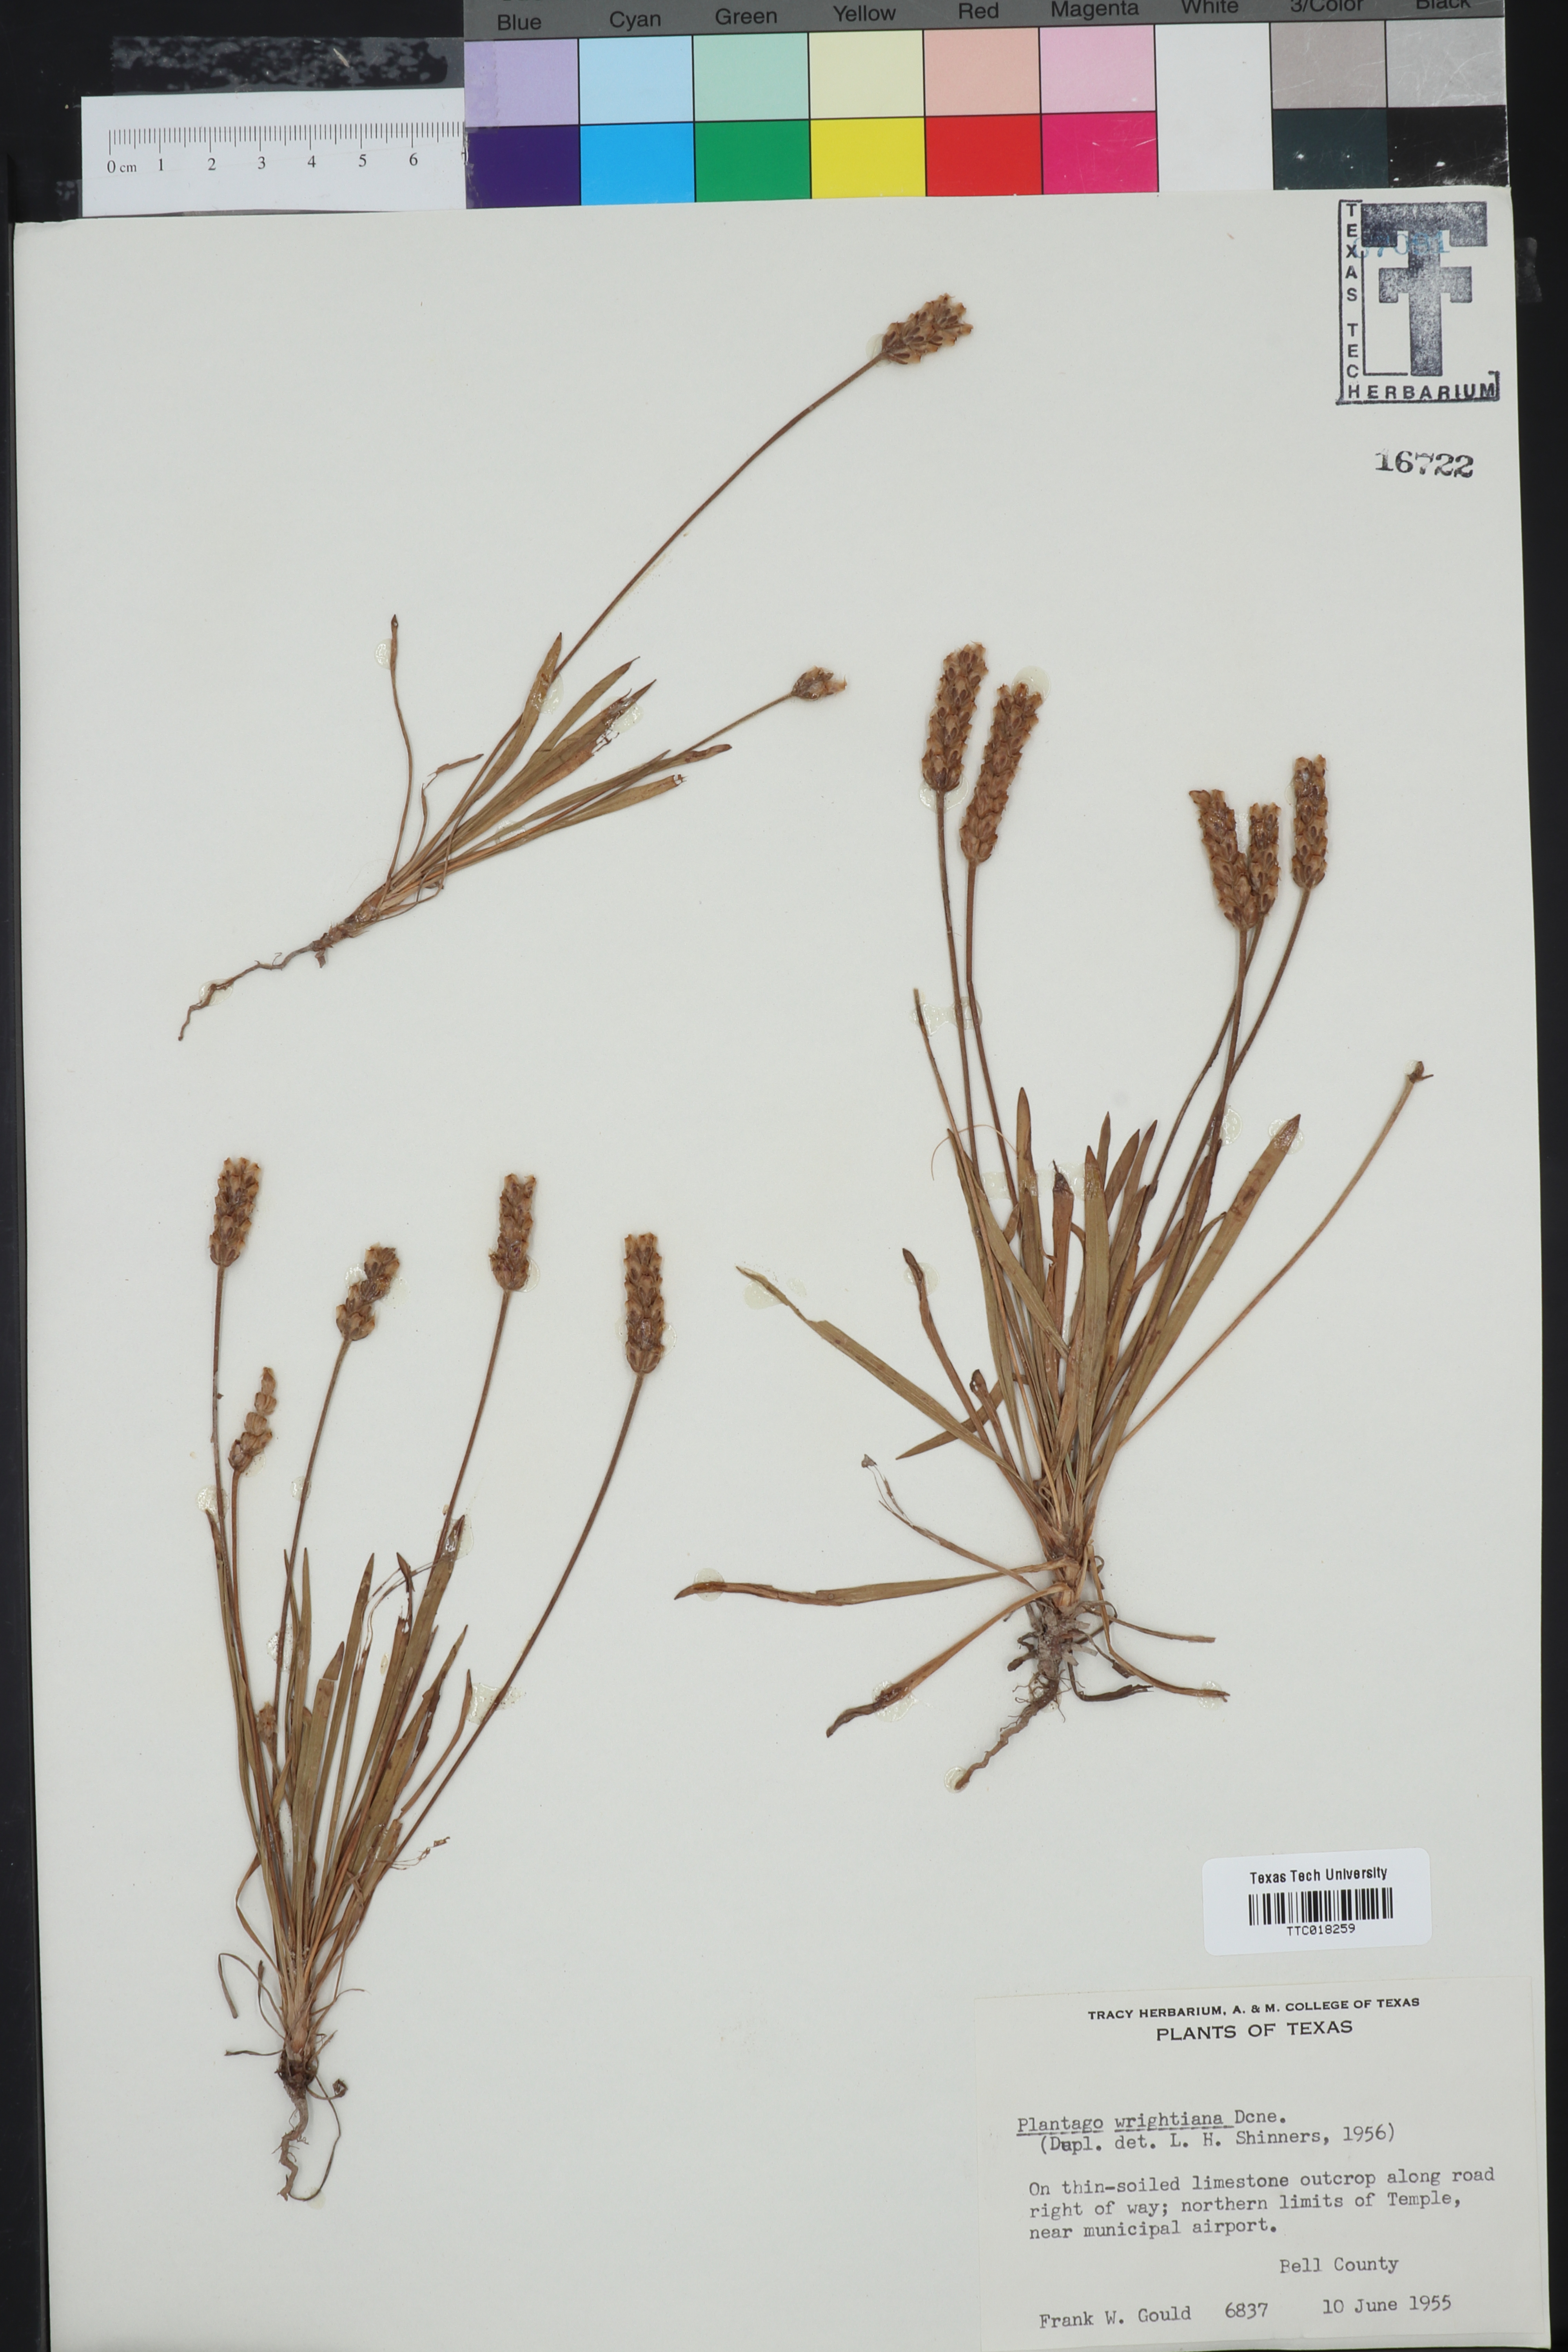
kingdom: Plantae
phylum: Tracheophyta
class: Magnoliopsida
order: Lamiales
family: Plantaginaceae
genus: Plantago
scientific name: Plantago wrightiana
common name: Wright's plantain
